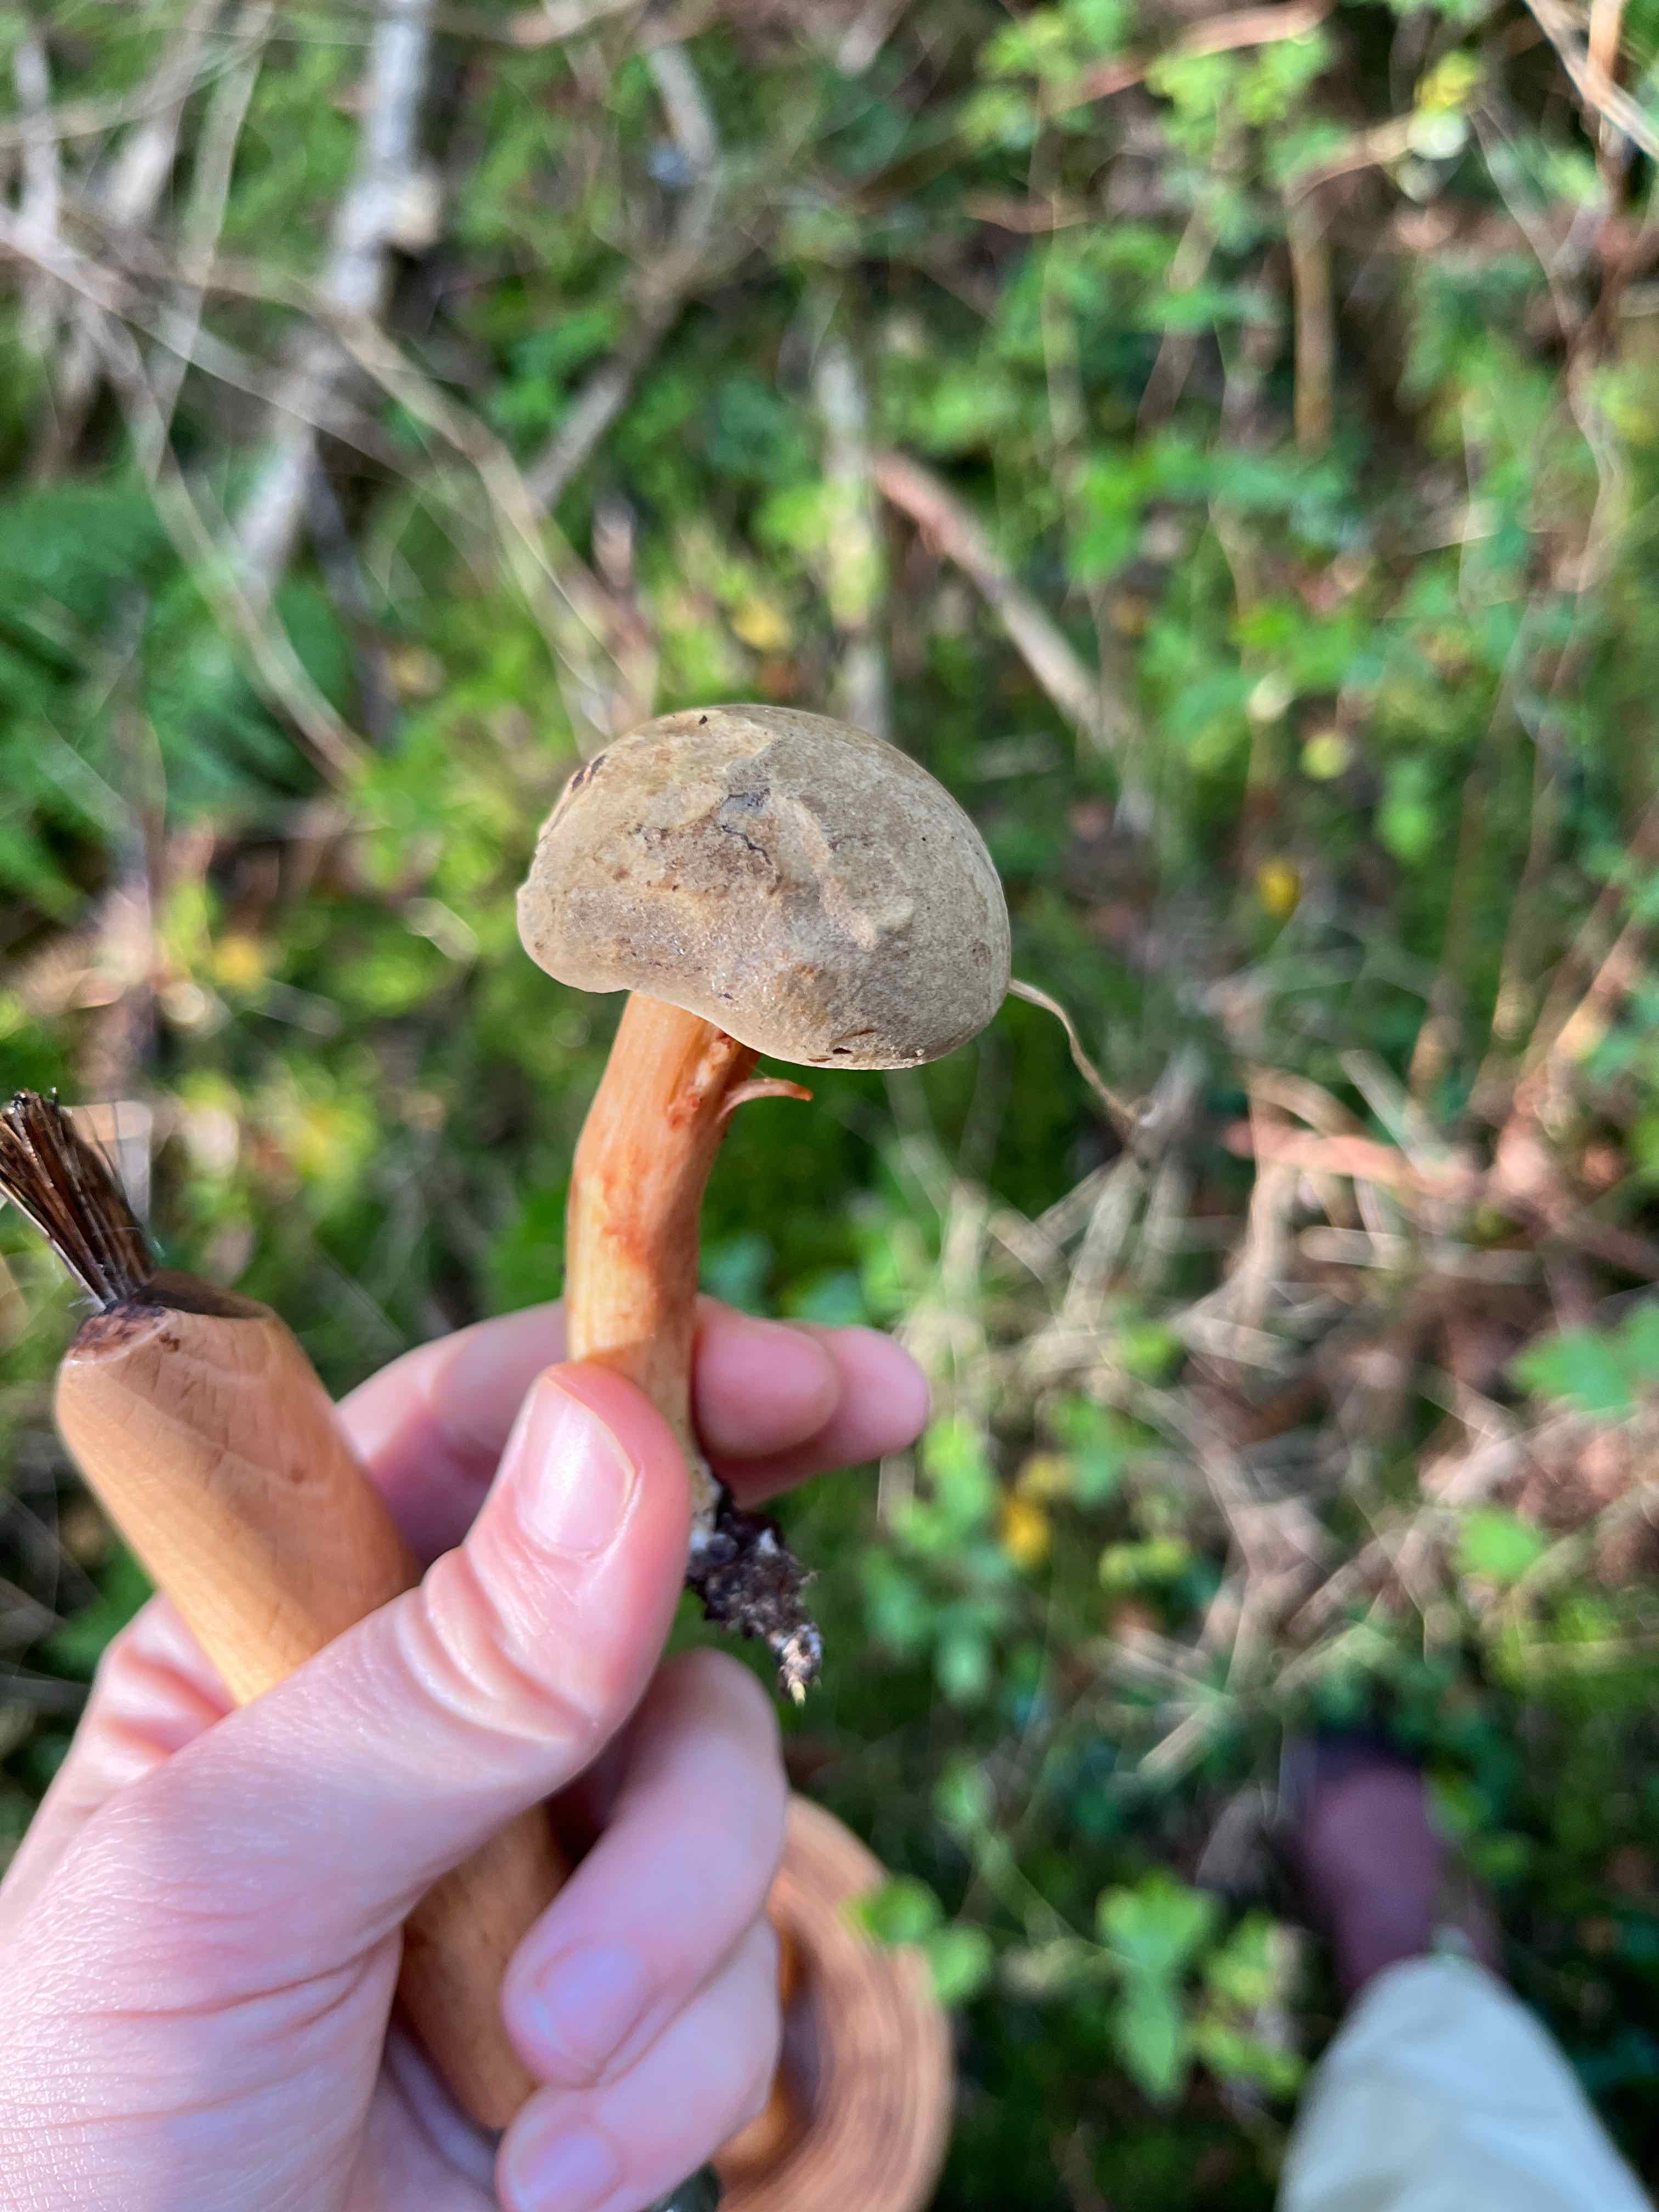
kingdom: Fungi
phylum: Basidiomycota
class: Agaricomycetes
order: Boletales
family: Boletaceae
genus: Xerocomus
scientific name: Xerocomus
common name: filtrørhat
